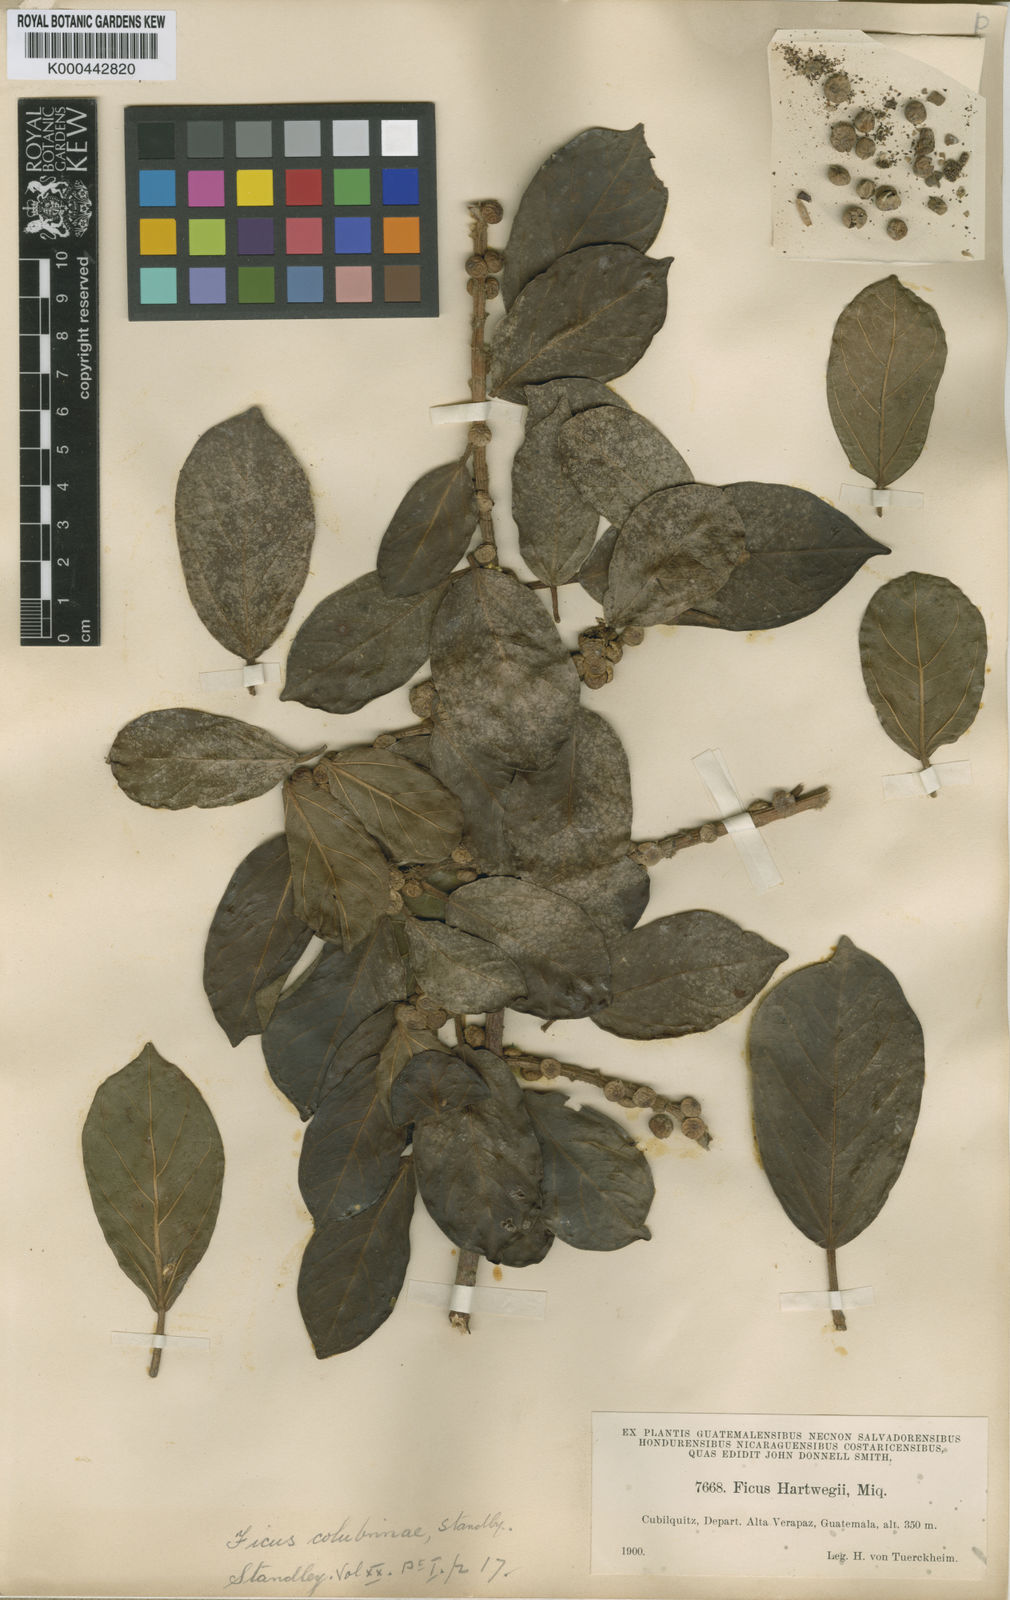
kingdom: Plantae
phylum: Tracheophyta
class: Magnoliopsida
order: Rosales
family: Moraceae
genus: Ficus
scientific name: Ficus colubrinae
